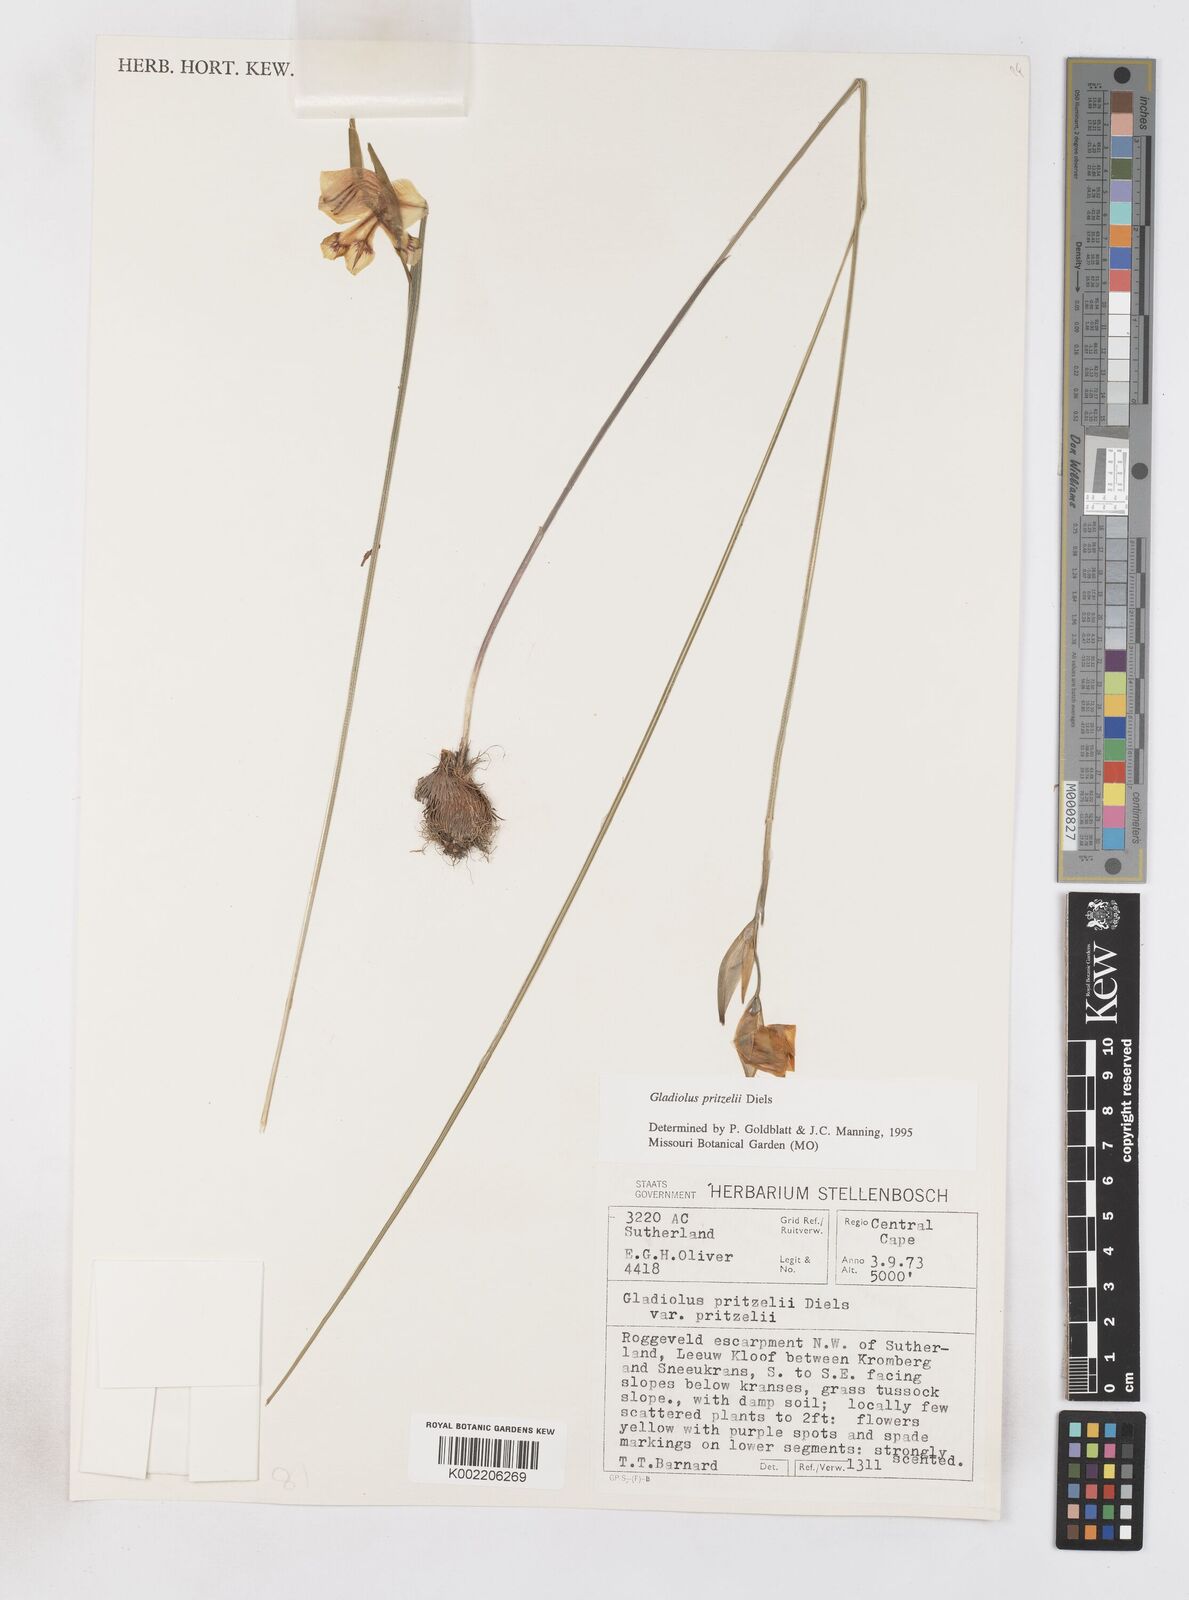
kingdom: Plantae
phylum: Tracheophyta
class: Liliopsida
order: Asparagales
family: Iridaceae
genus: Gladiolus
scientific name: Gladiolus pritzelii
